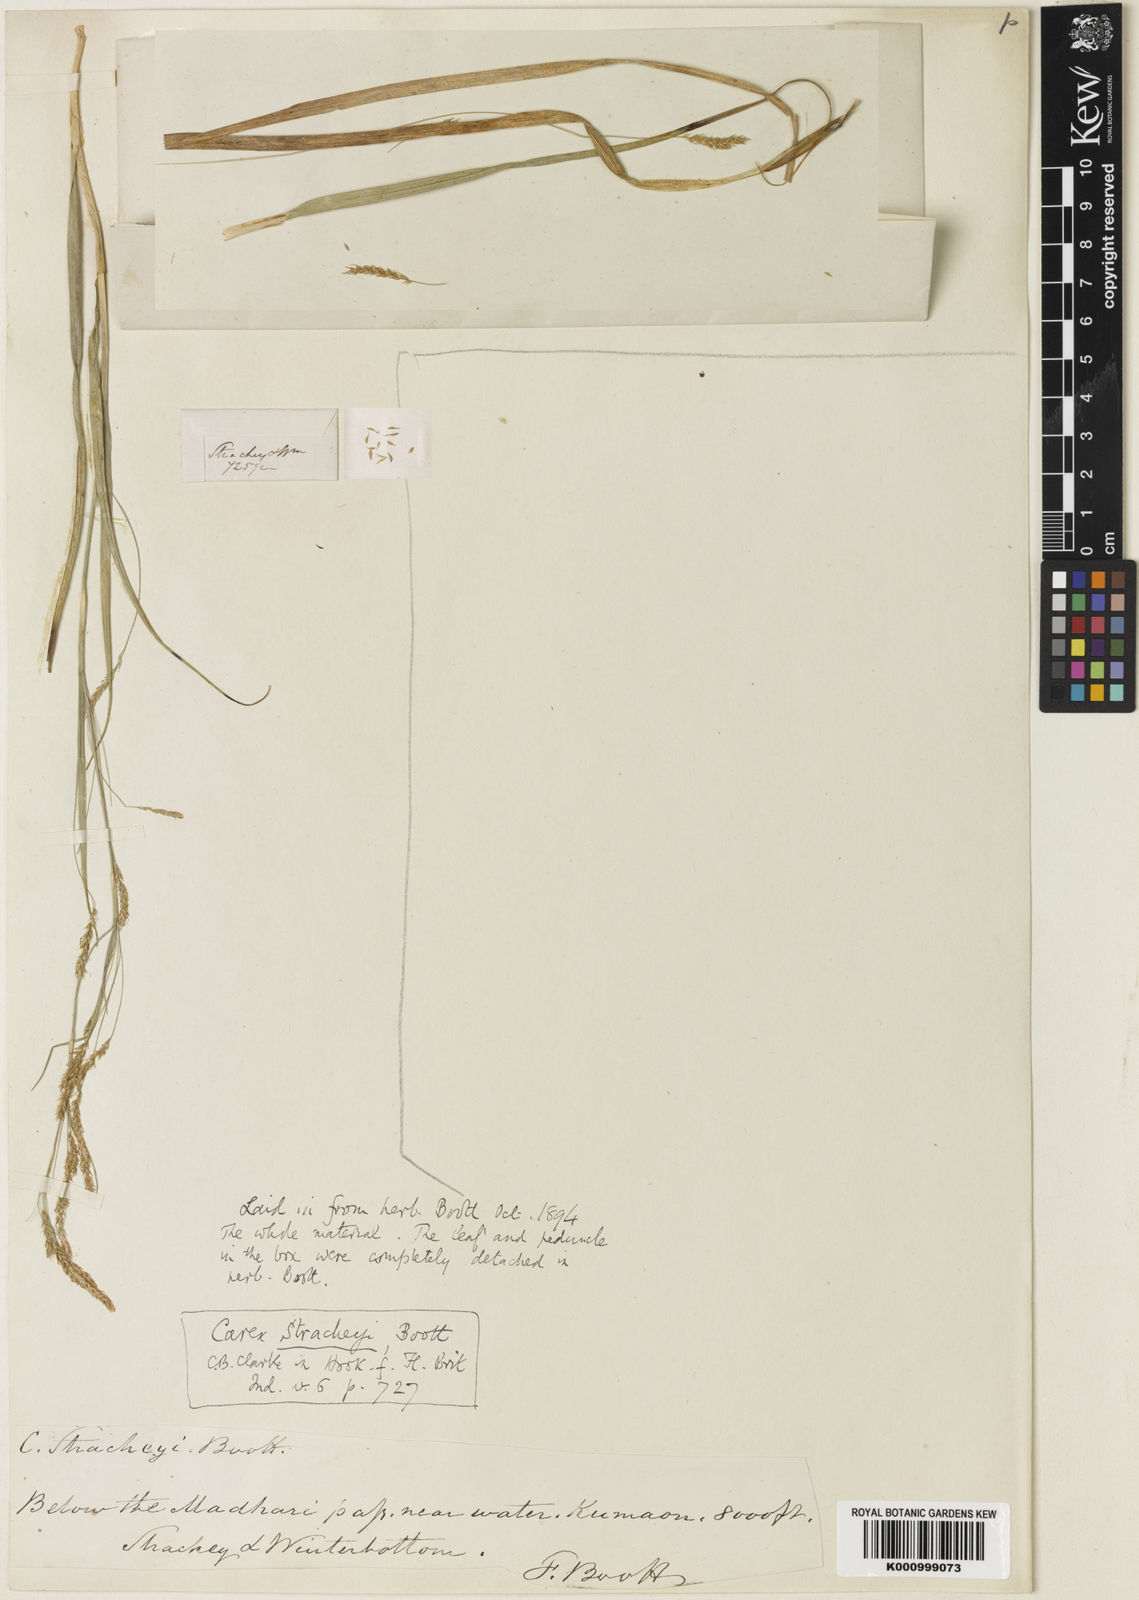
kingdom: Plantae
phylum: Tracheophyta
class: Liliopsida
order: Poales
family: Cyperaceae
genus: Carex
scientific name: Carex stracheyi
